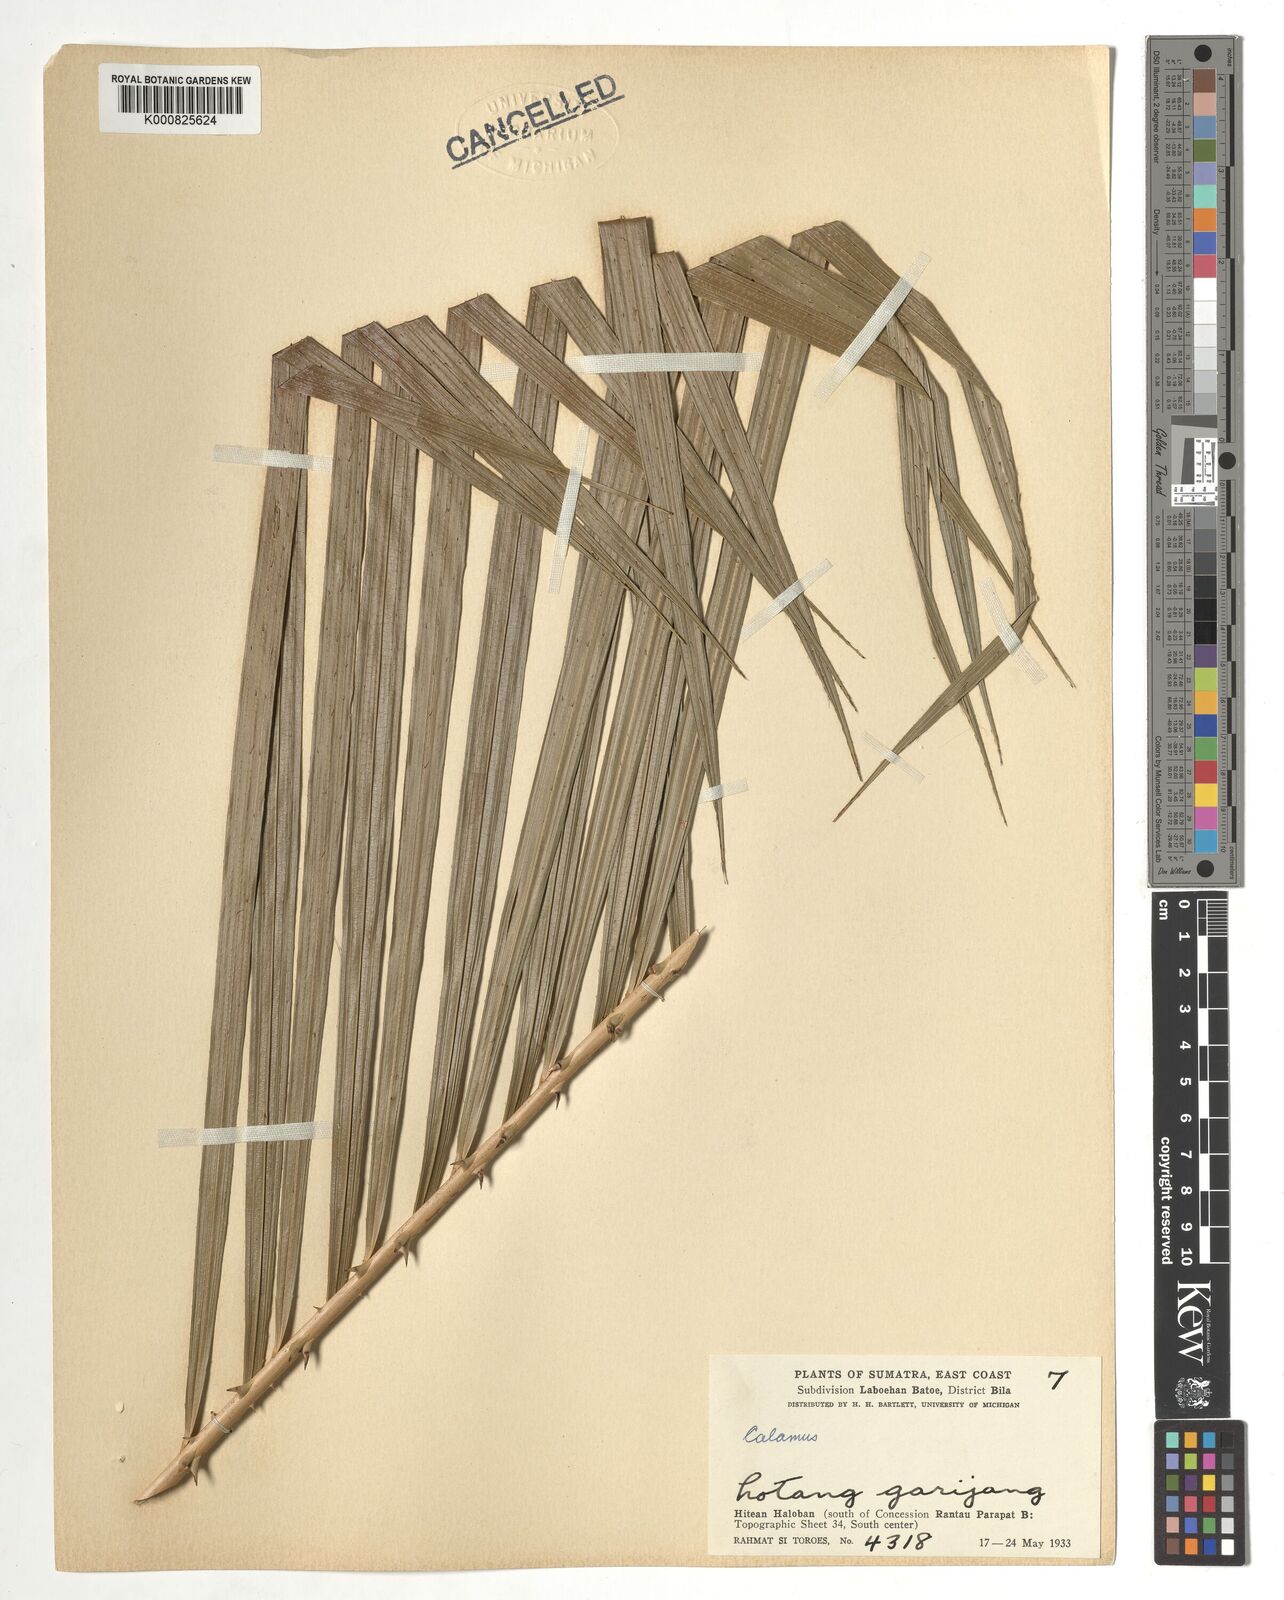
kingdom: Plantae
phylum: Tracheophyta
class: Liliopsida
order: Arecales
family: Arecaceae
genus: Calamus
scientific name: Calamus
